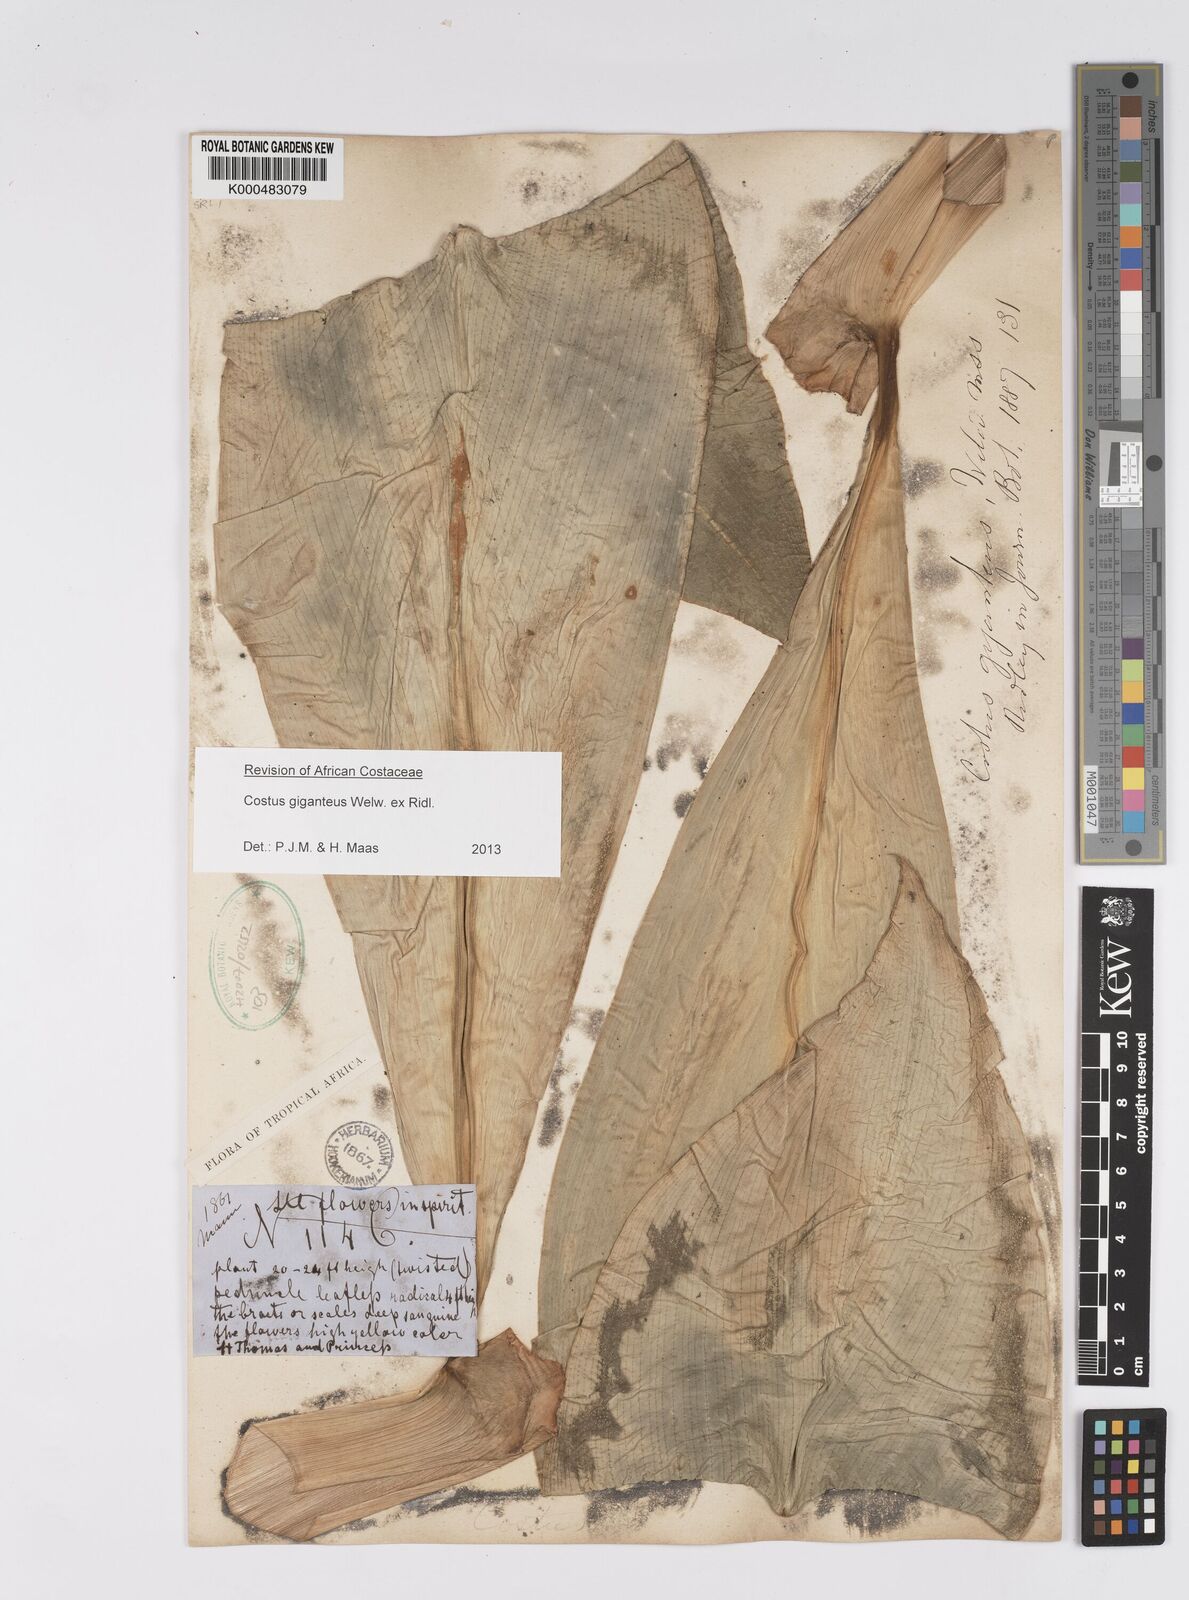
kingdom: Plantae
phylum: Tracheophyta
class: Liliopsida
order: Zingiberales
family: Costaceae
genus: Costus
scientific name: Costus giganteus
